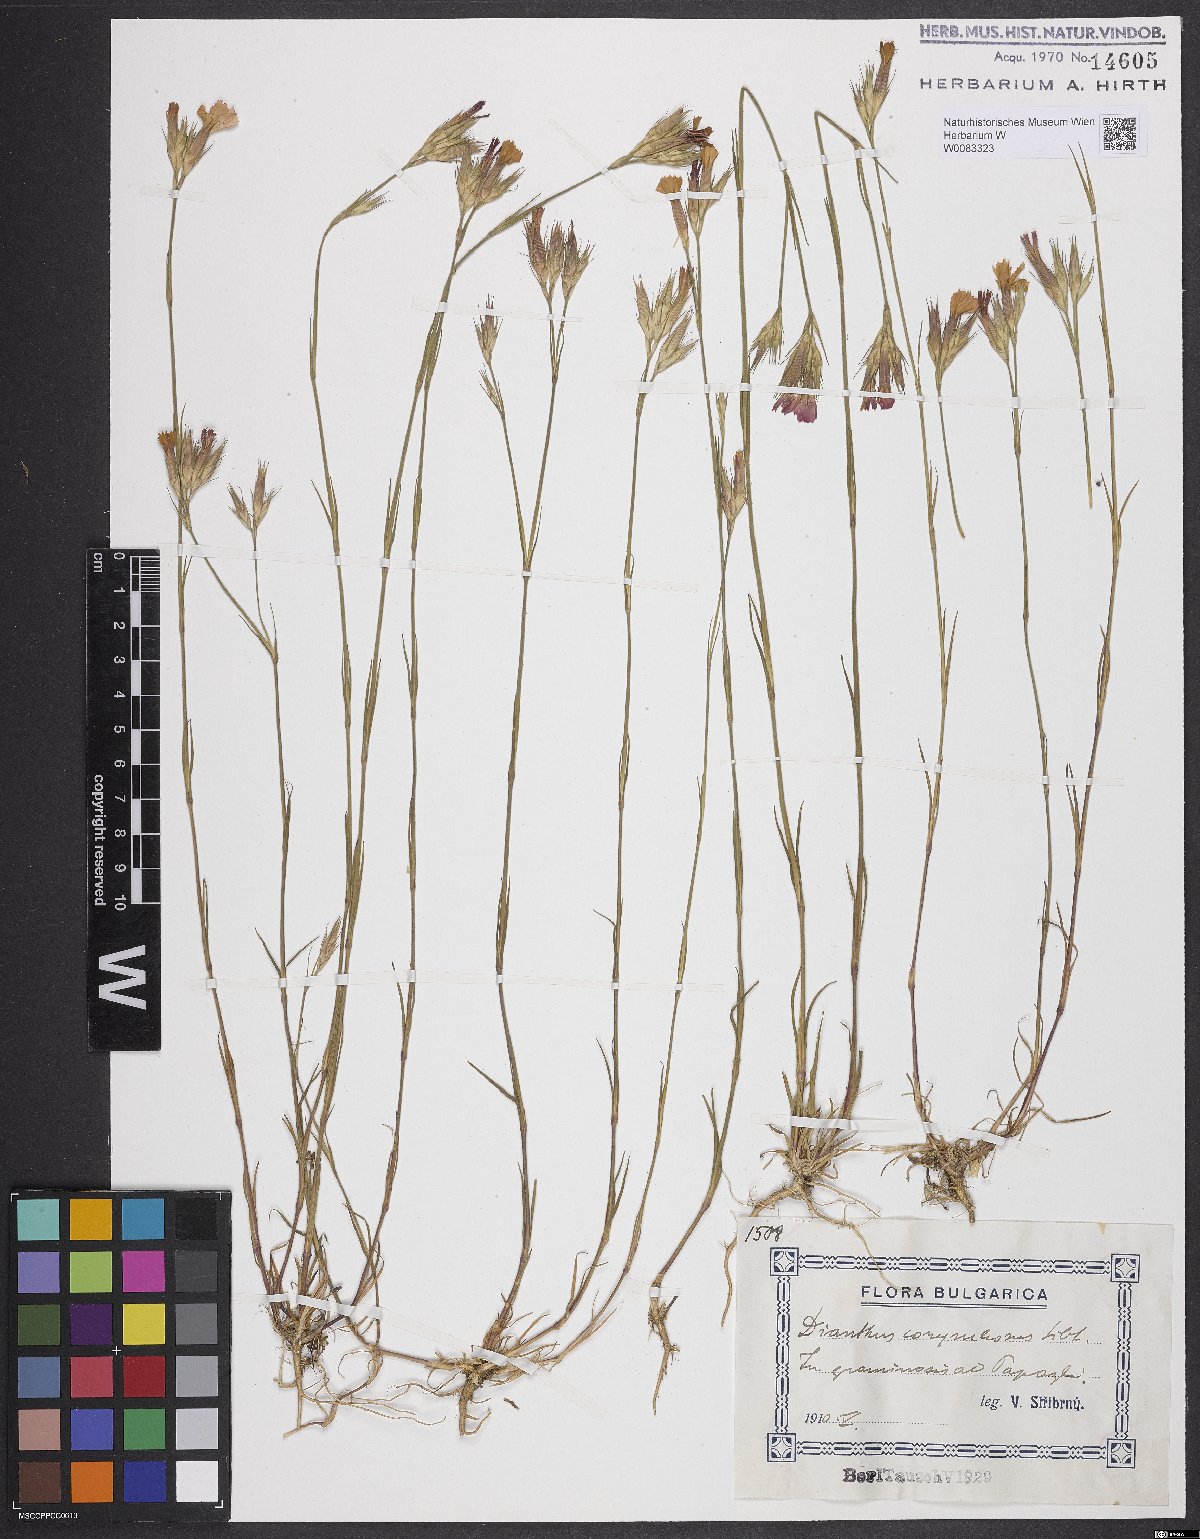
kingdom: Plantae
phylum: Tracheophyta
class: Magnoliopsida
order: Caryophyllales
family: Caryophyllaceae
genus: Dianthus
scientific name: Dianthus corymbosus
